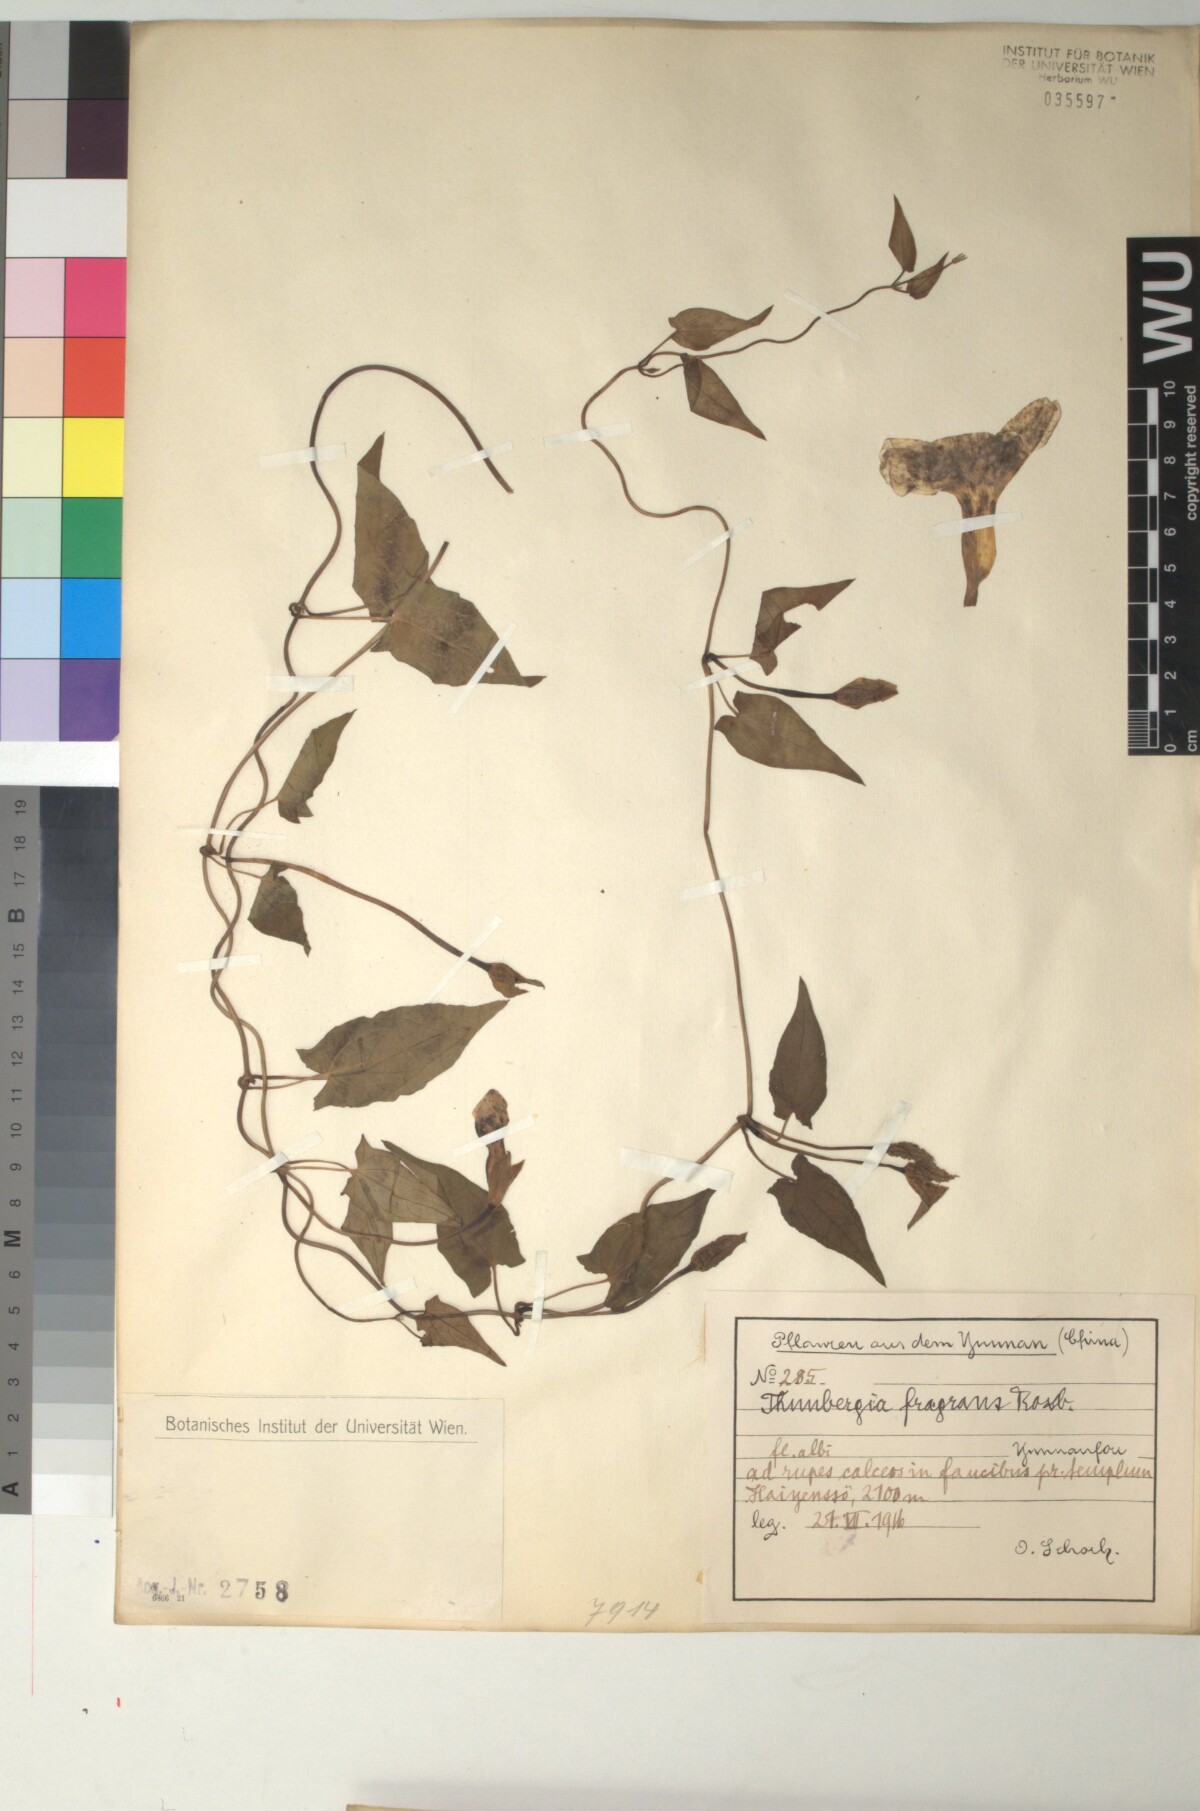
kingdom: Plantae
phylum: Tracheophyta
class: Magnoliopsida
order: Lamiales
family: Acanthaceae
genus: Thunbergia
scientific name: Thunbergia fragrans
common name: Whitelady
